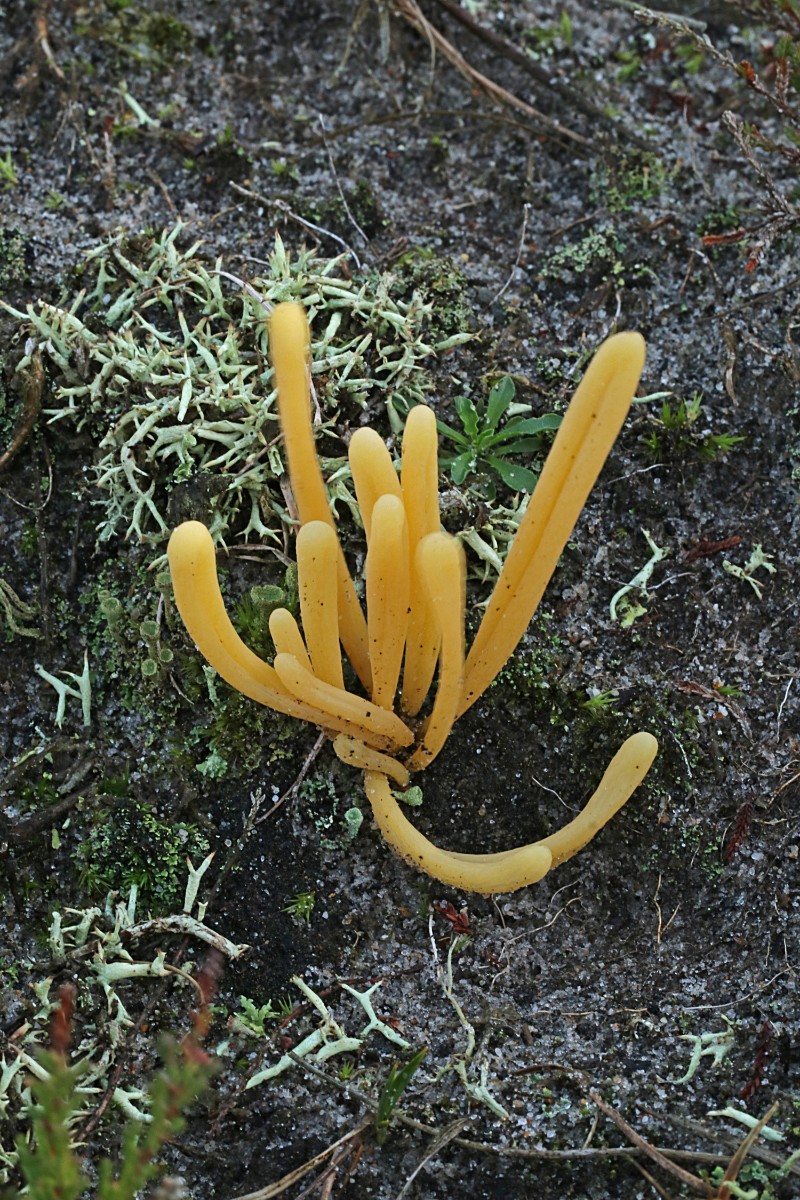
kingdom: Fungi
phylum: Basidiomycota
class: Agaricomycetes
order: Agaricales
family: Clavariaceae
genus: Clavaria
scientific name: Clavaria argillacea
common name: lerfarvet køllesvamp
